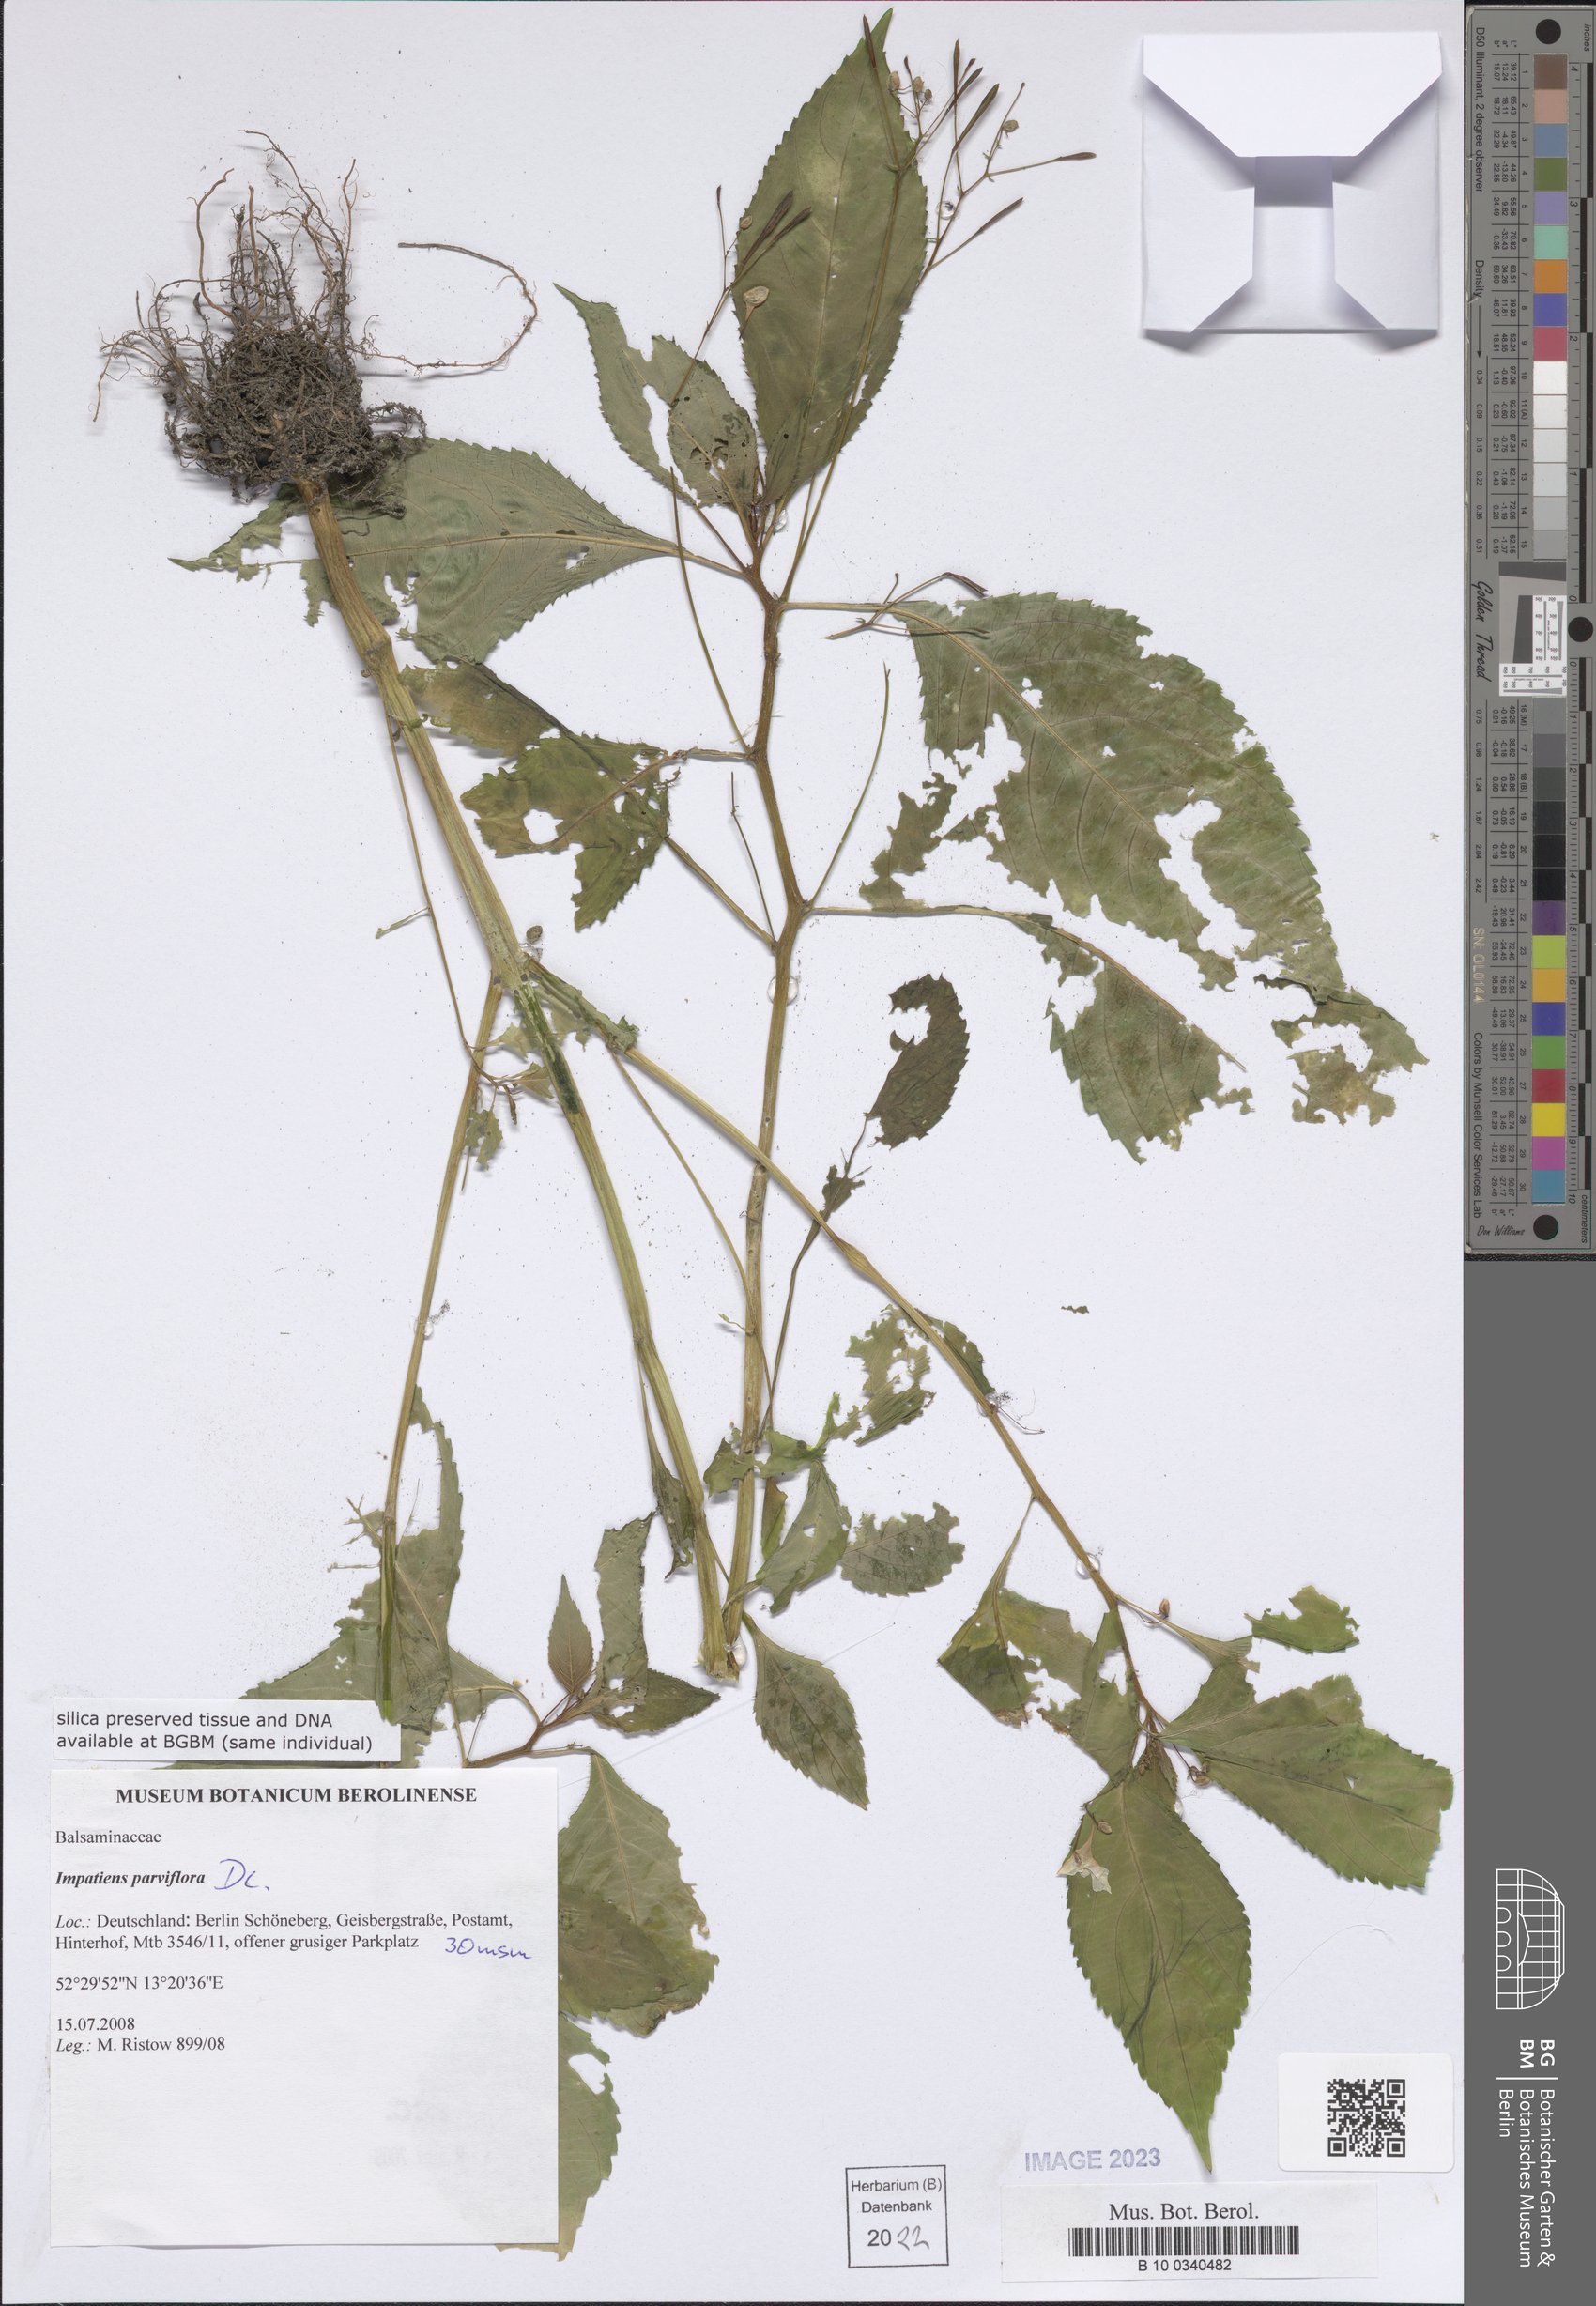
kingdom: Plantae
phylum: Tracheophyta
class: Magnoliopsida
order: Ericales
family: Balsaminaceae
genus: Impatiens
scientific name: Impatiens parviflora
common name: Small balsam
